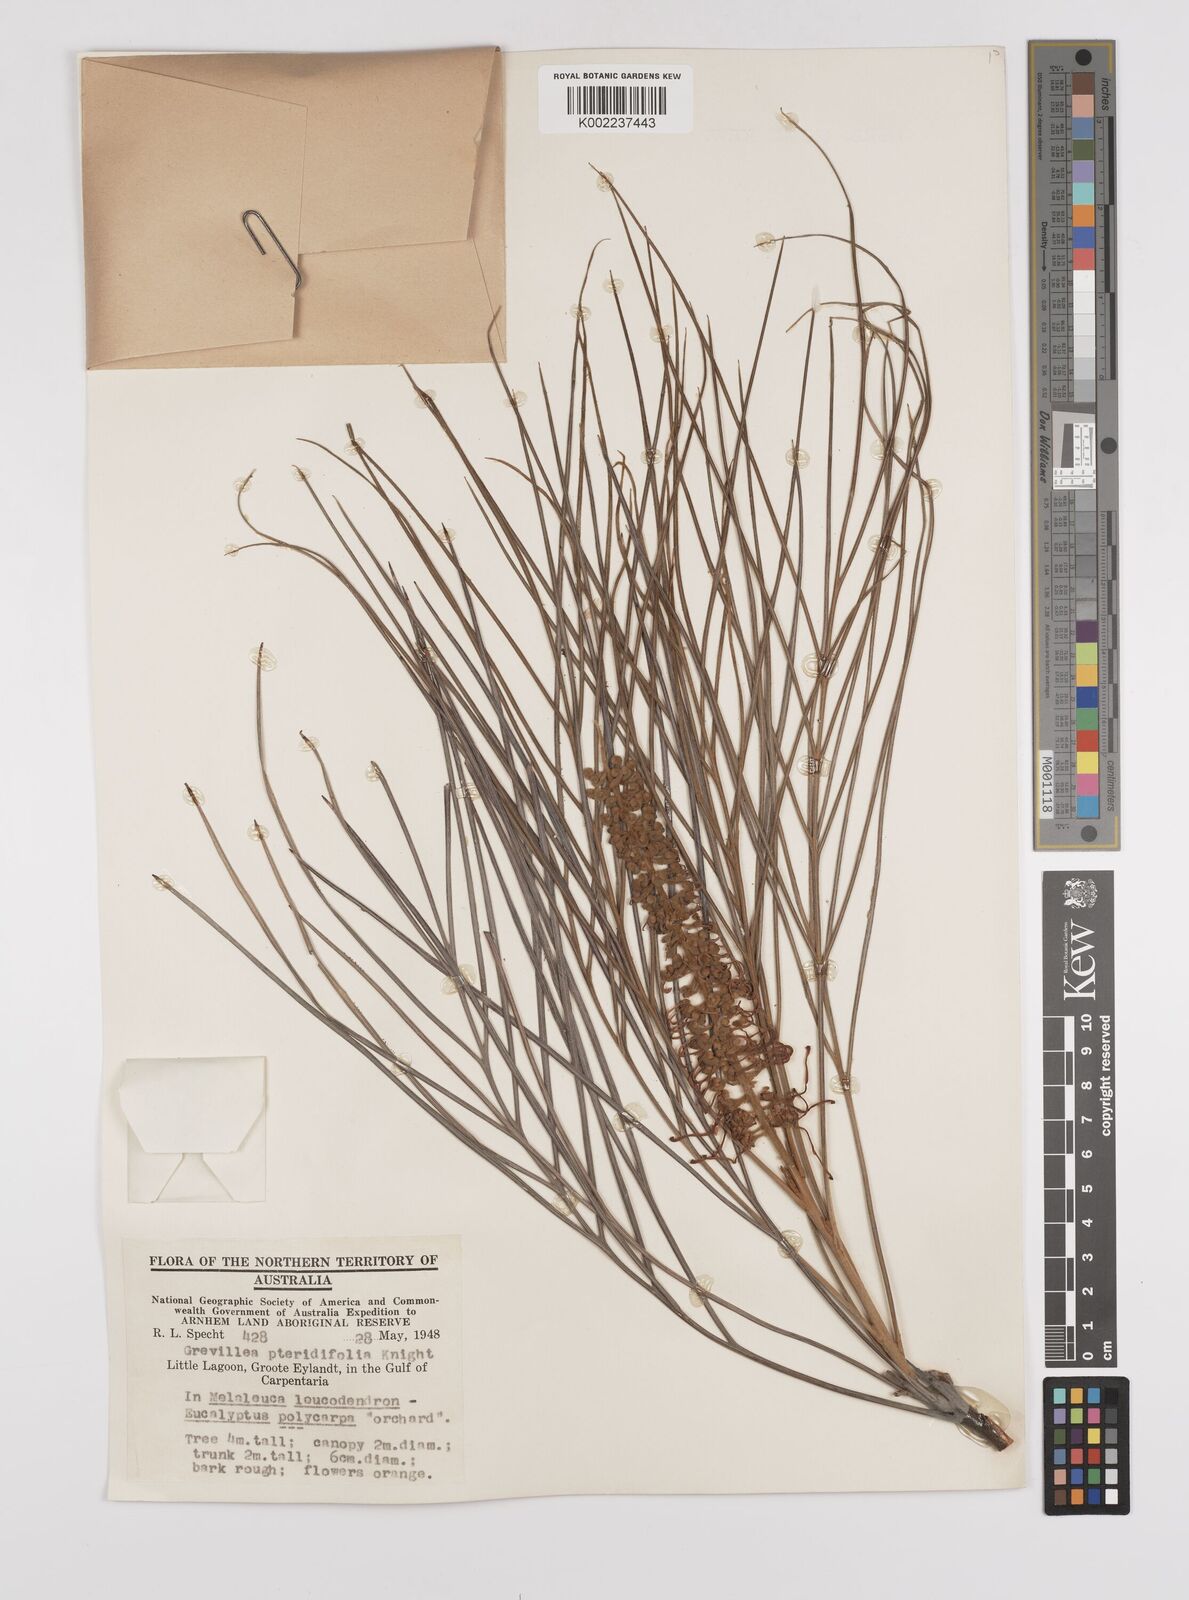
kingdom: Plantae
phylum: Tracheophyta
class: Magnoliopsida
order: Proteales
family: Proteaceae
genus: Grevillea
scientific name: Grevillea pteridifolia
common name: Golden grevillea
